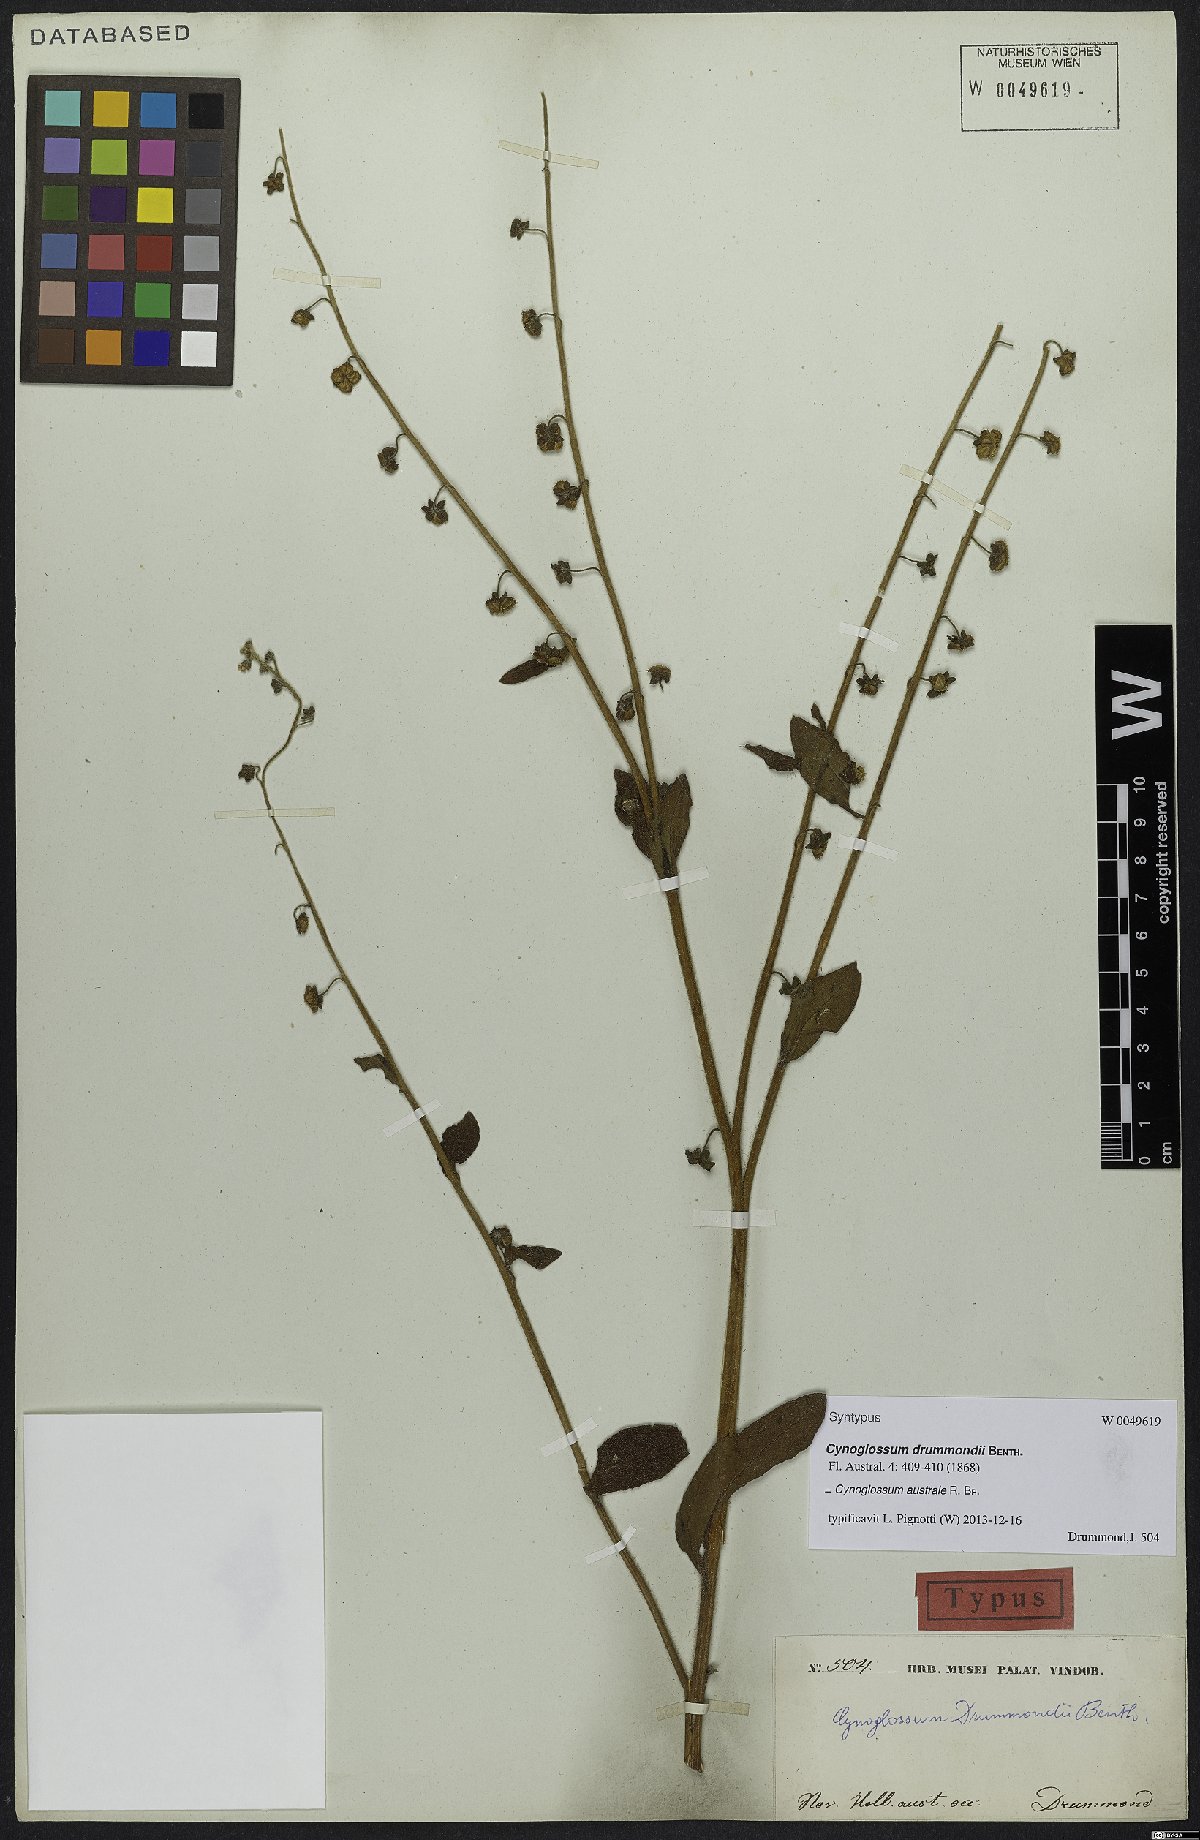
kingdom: Plantae
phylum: Tracheophyta
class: Magnoliopsida
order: Boraginales
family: Boraginaceae
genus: Cynoglossum
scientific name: Cynoglossum australe
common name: Australian hound's-tongue
